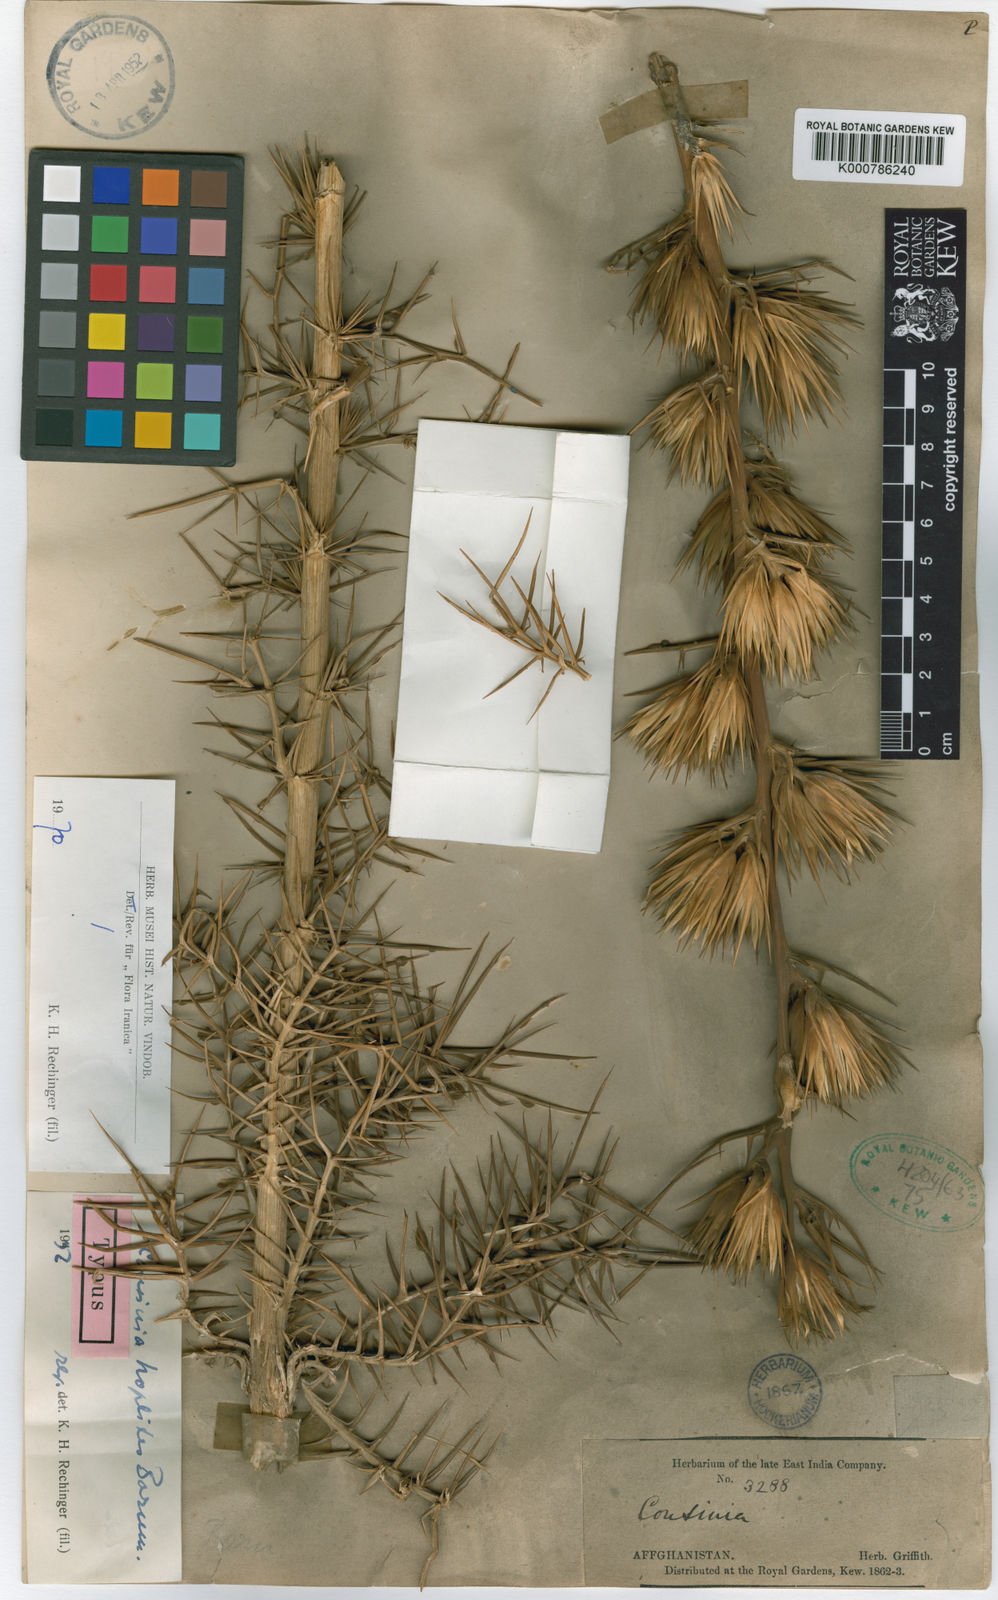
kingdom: Plantae
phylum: Tracheophyta
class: Magnoliopsida
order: Asterales
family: Asteraceae
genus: Cousinia
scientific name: Cousinia hoplites
